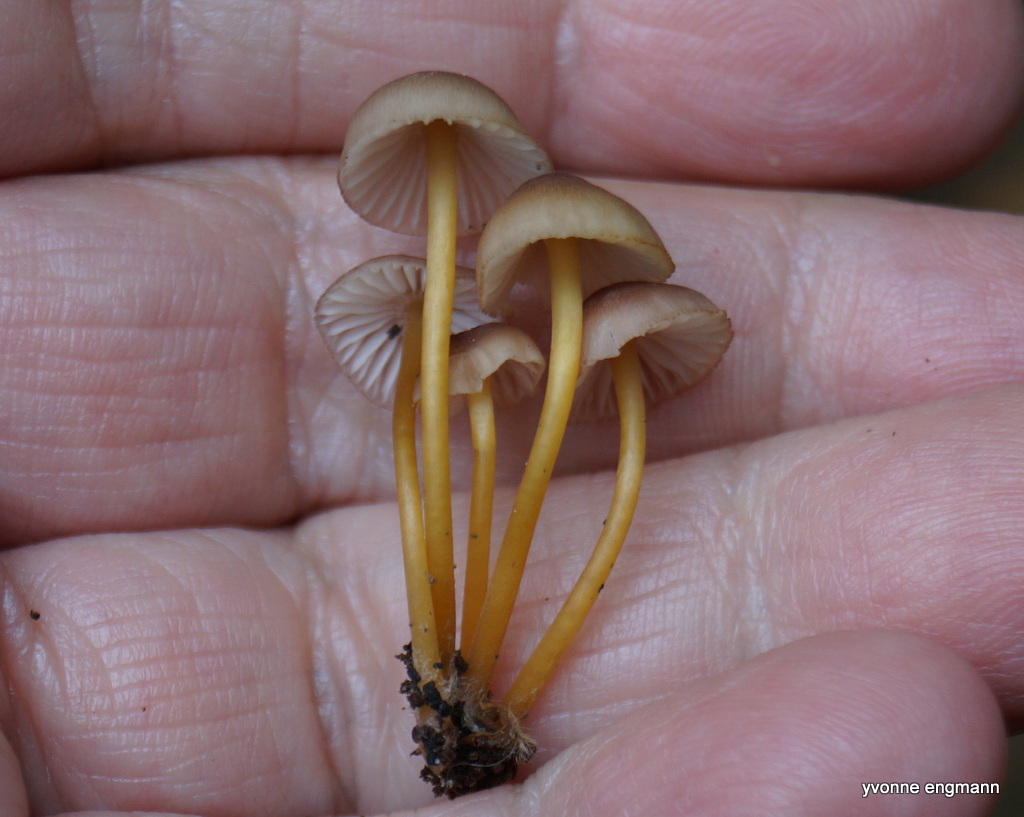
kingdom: Fungi
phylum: Basidiomycota
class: Agaricomycetes
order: Agaricales
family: Mycenaceae
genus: Mycena
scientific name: Mycena renati
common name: smuk huesvamp
